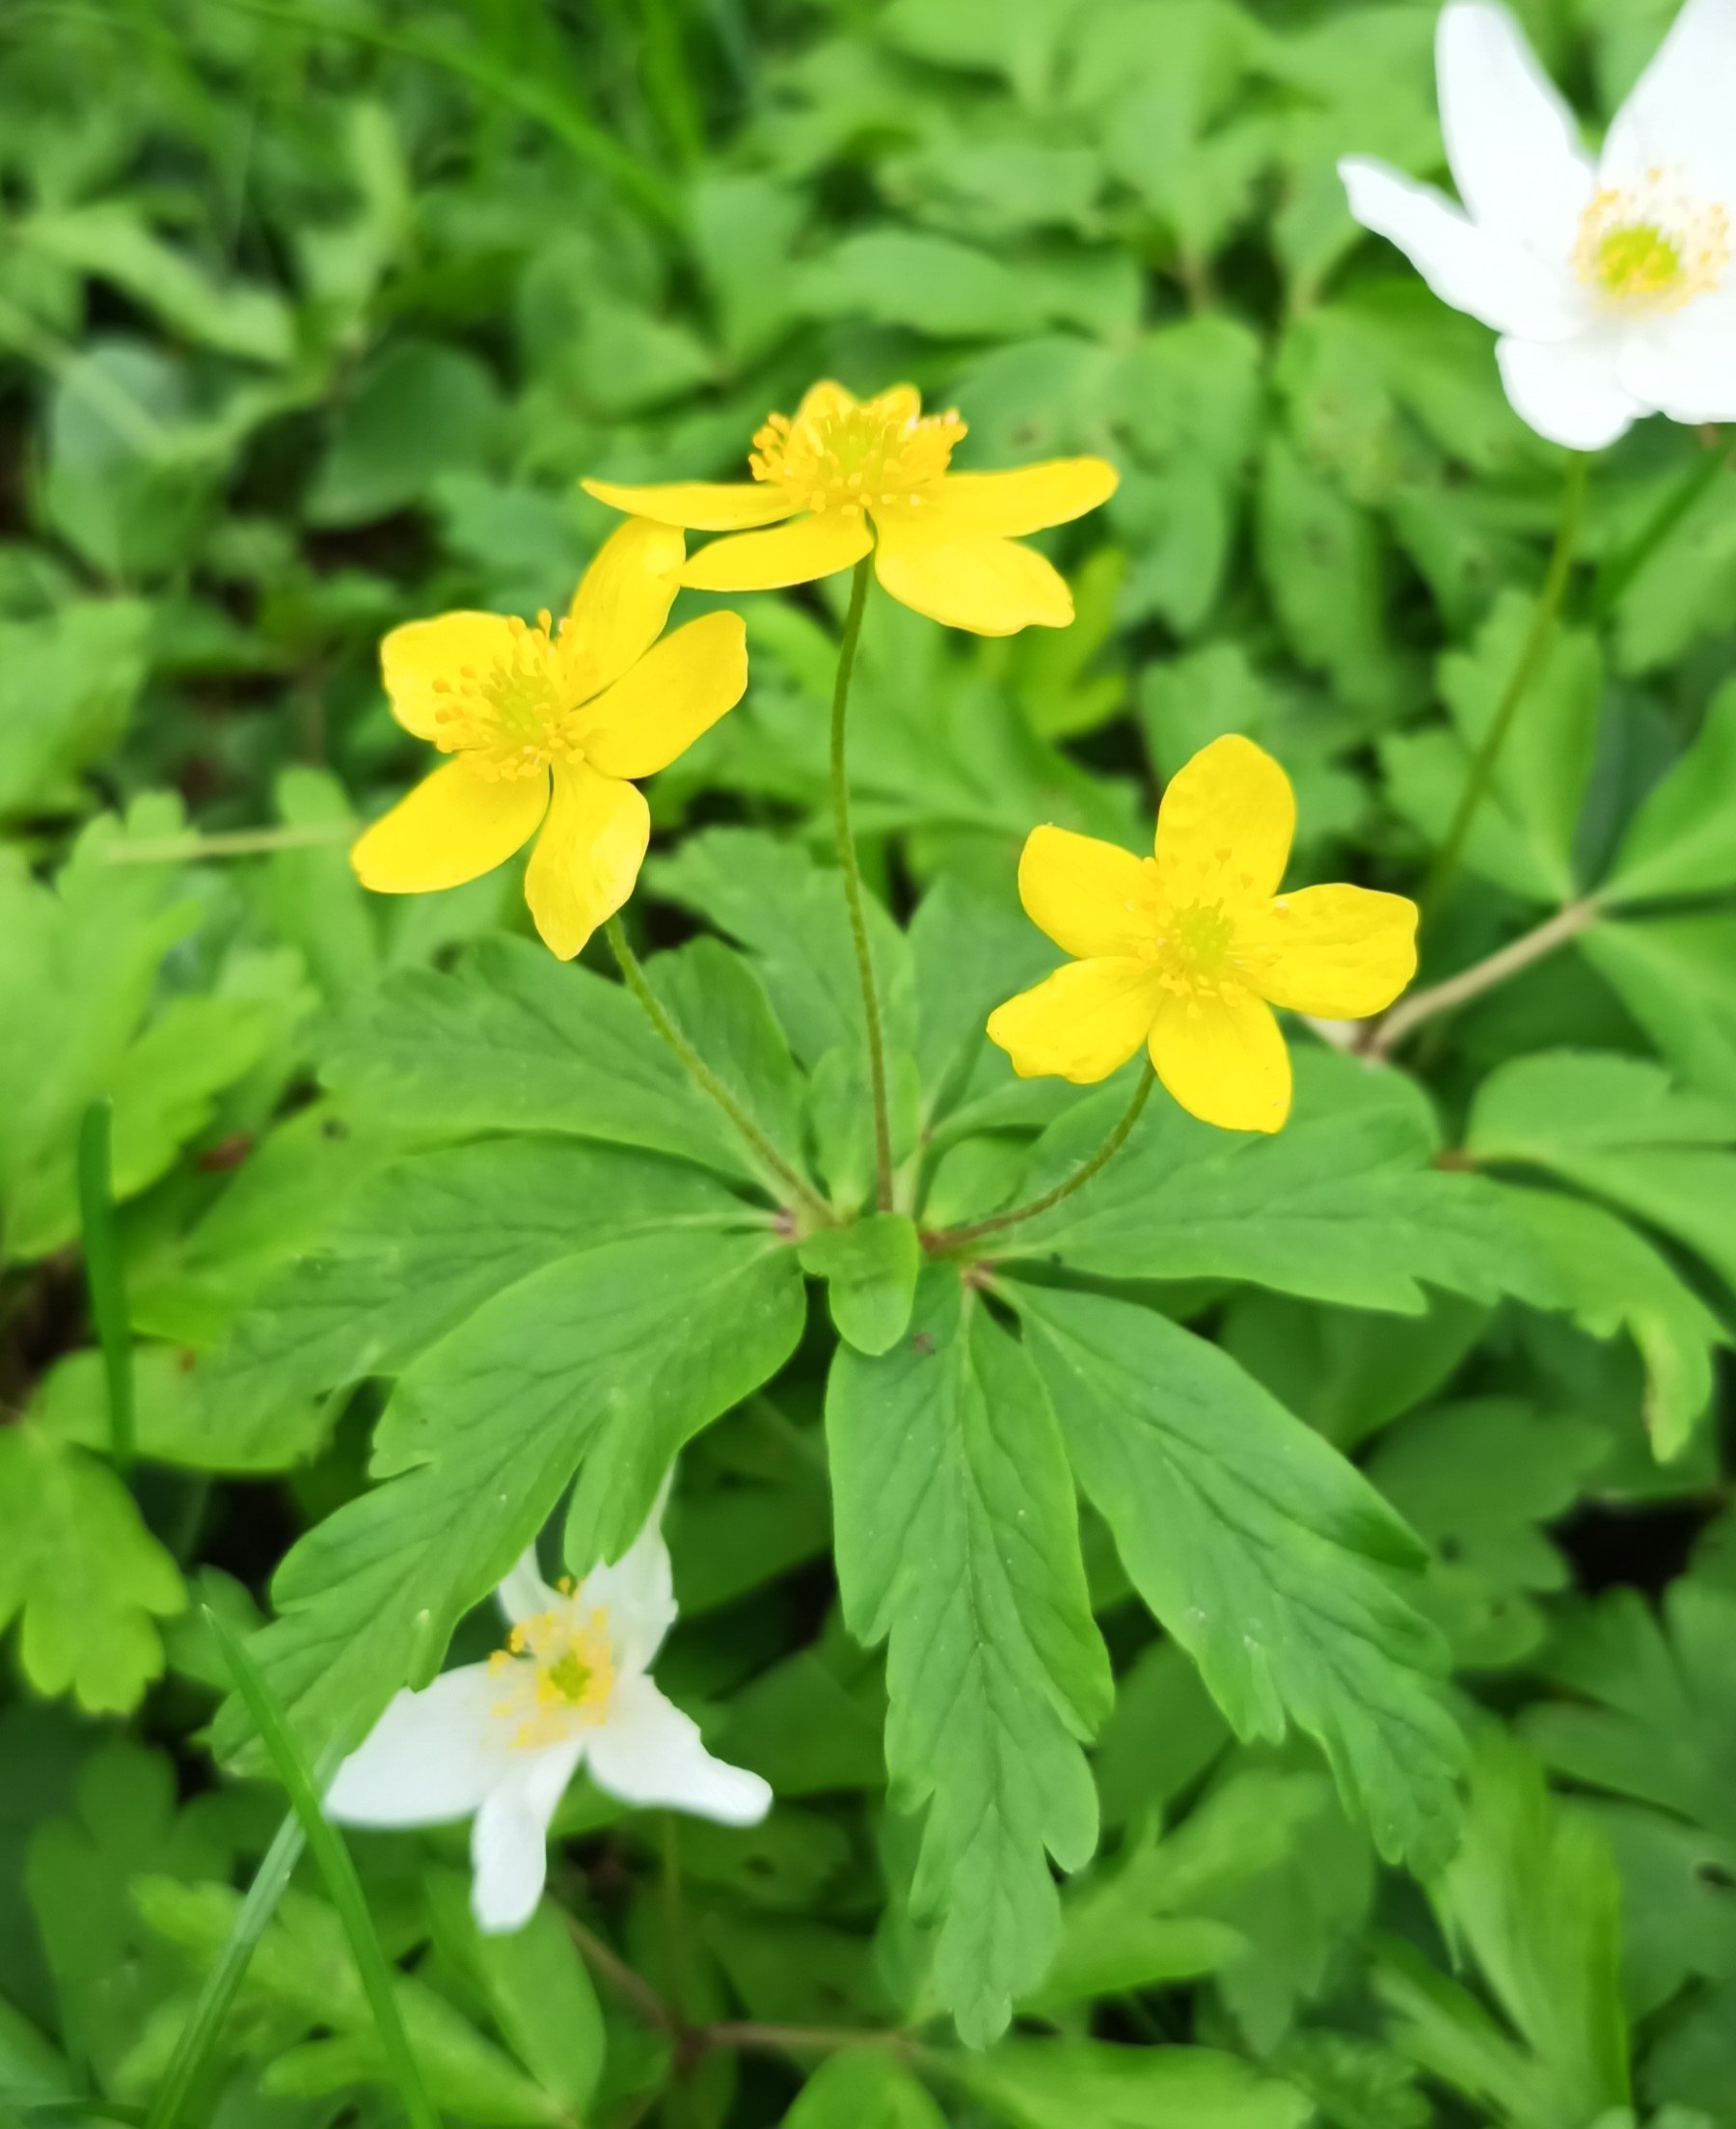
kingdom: Plantae
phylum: Tracheophyta
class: Magnoliopsida
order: Ranunculales
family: Ranunculaceae
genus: Anemone
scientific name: Anemone ranunculoides
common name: Gul anemone
